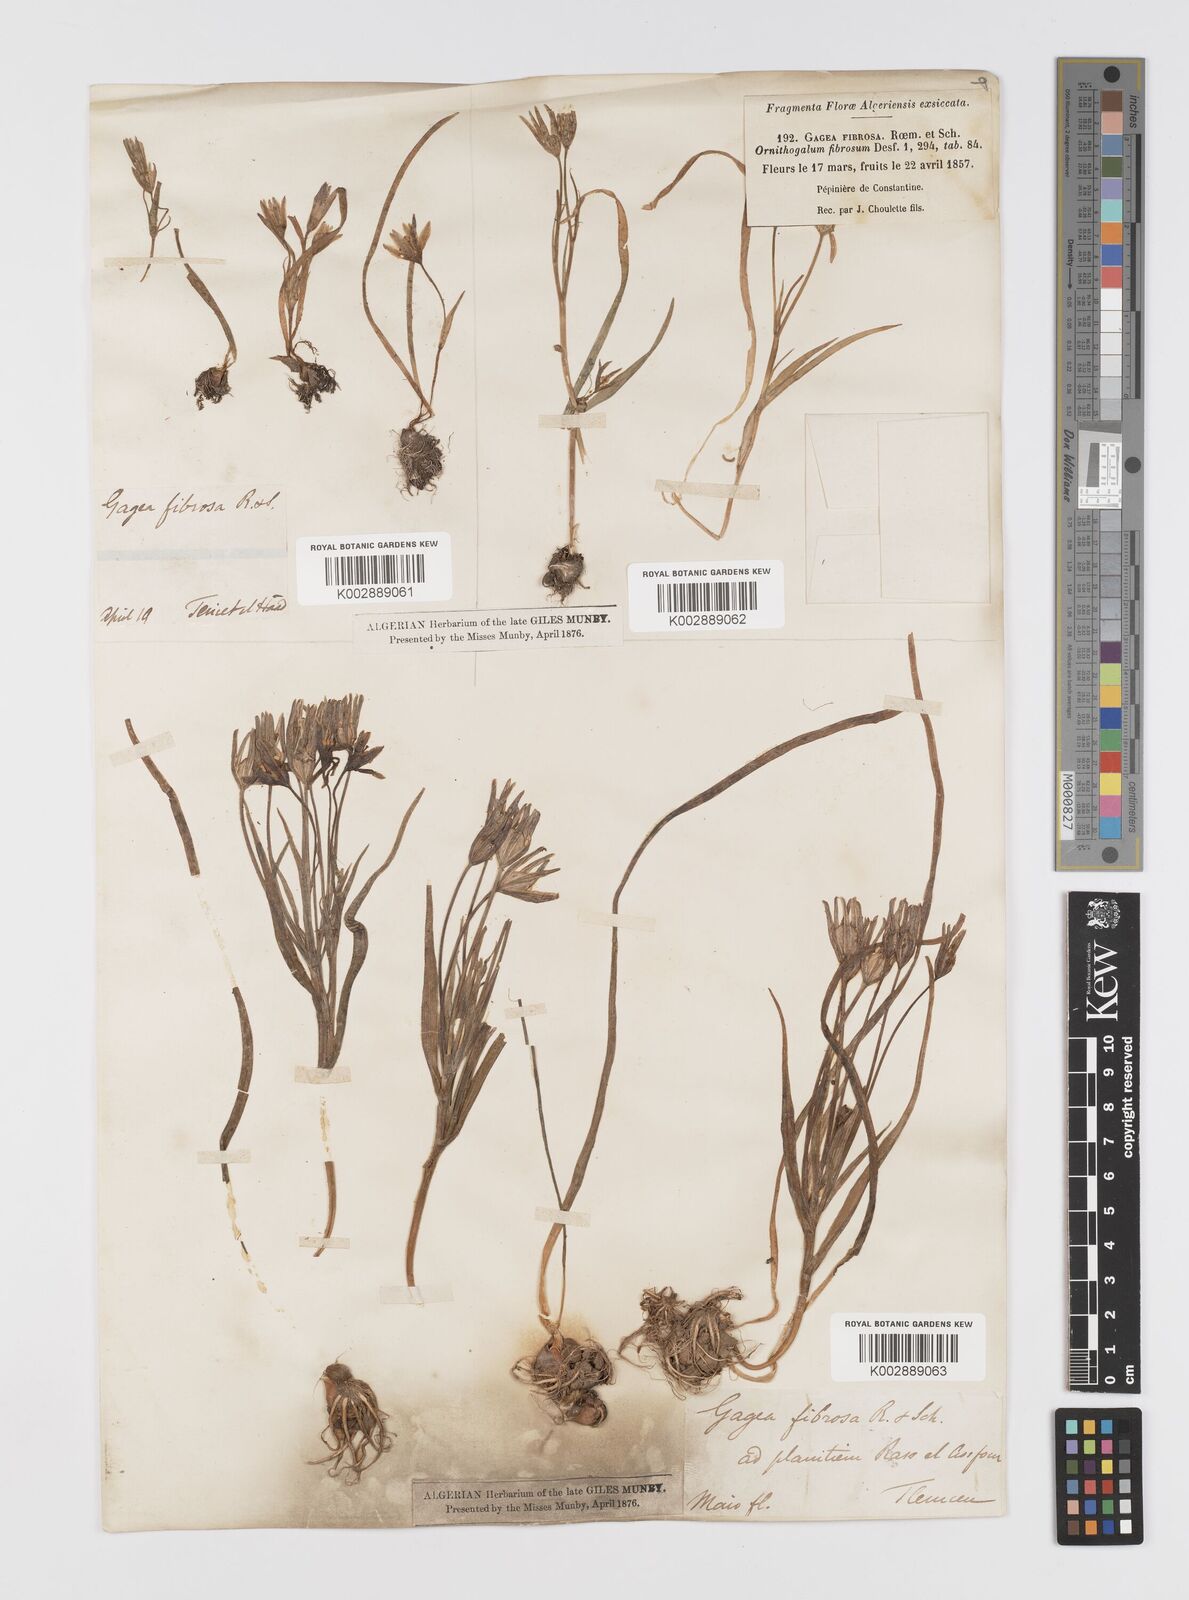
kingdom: Plantae
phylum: Tracheophyta
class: Liliopsida
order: Liliales
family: Liliaceae
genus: Gagea
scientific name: Gagea fibrosa
